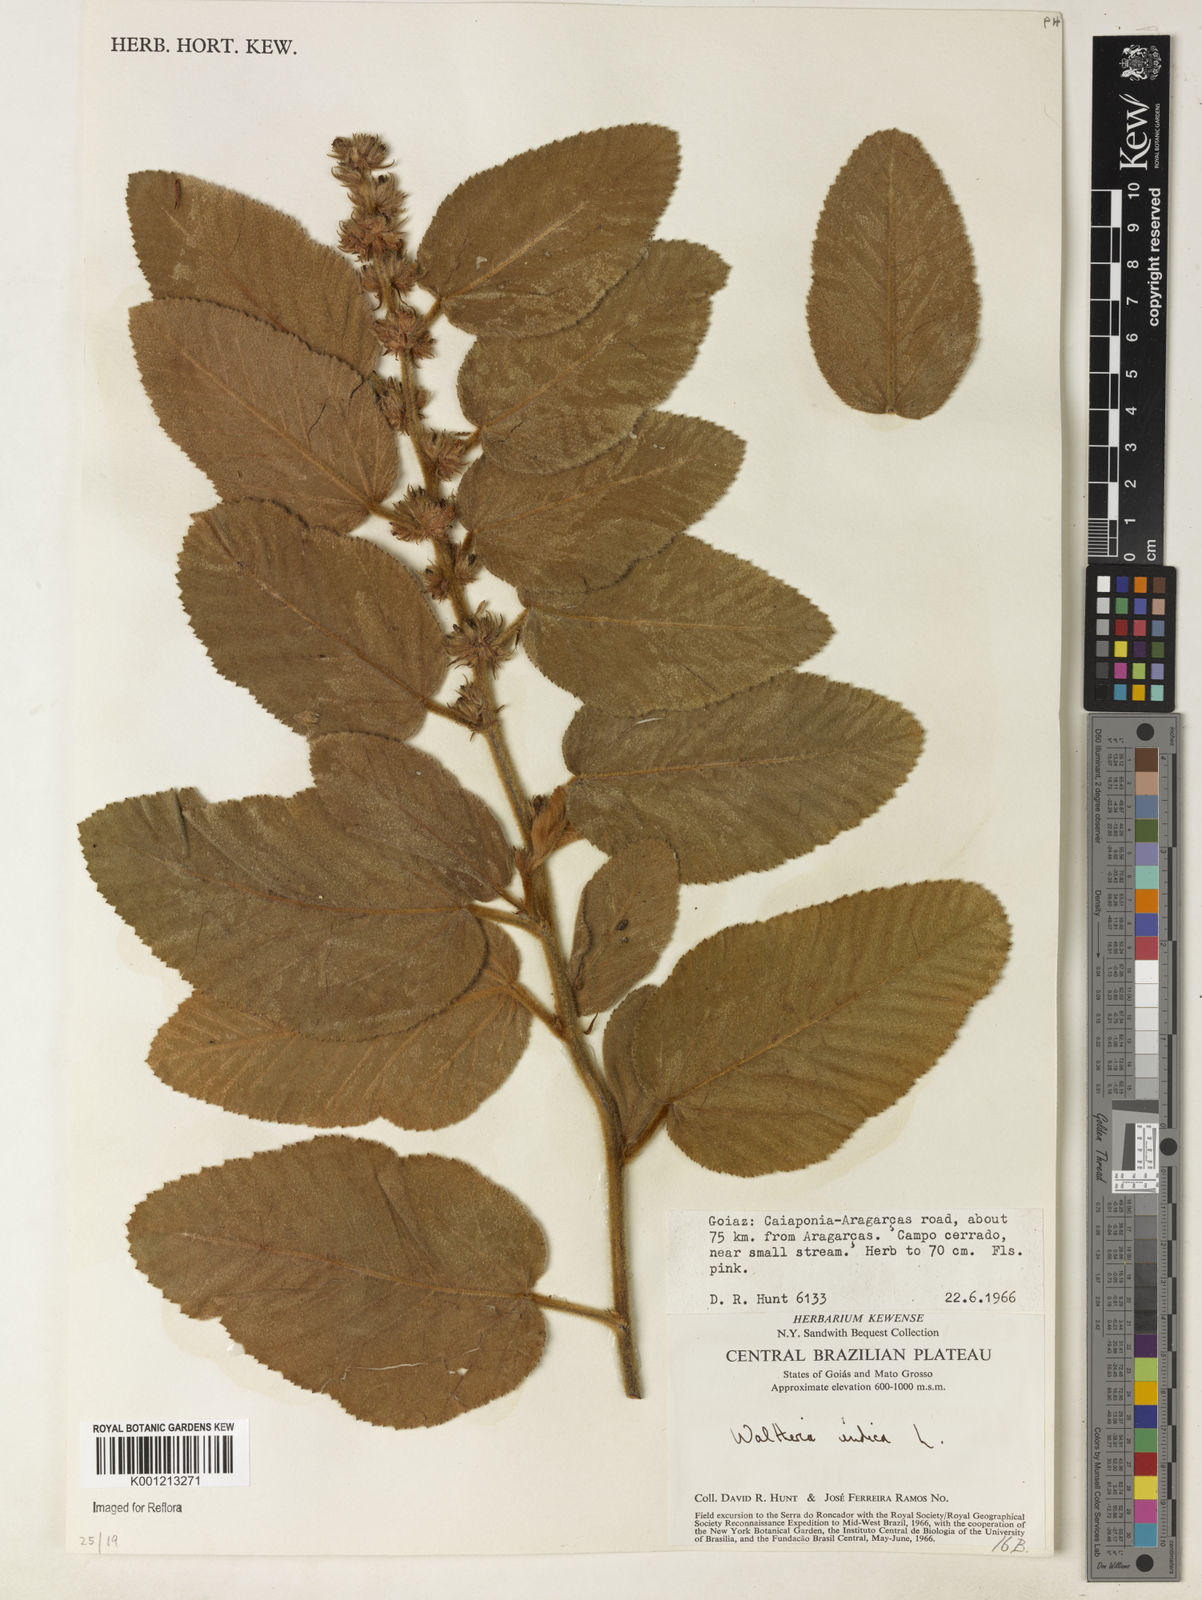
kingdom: Plantae
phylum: Tracheophyta
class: Magnoliopsida
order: Malvales
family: Malvaceae
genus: Waltheria
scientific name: Waltheria indica
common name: Leather-coat
